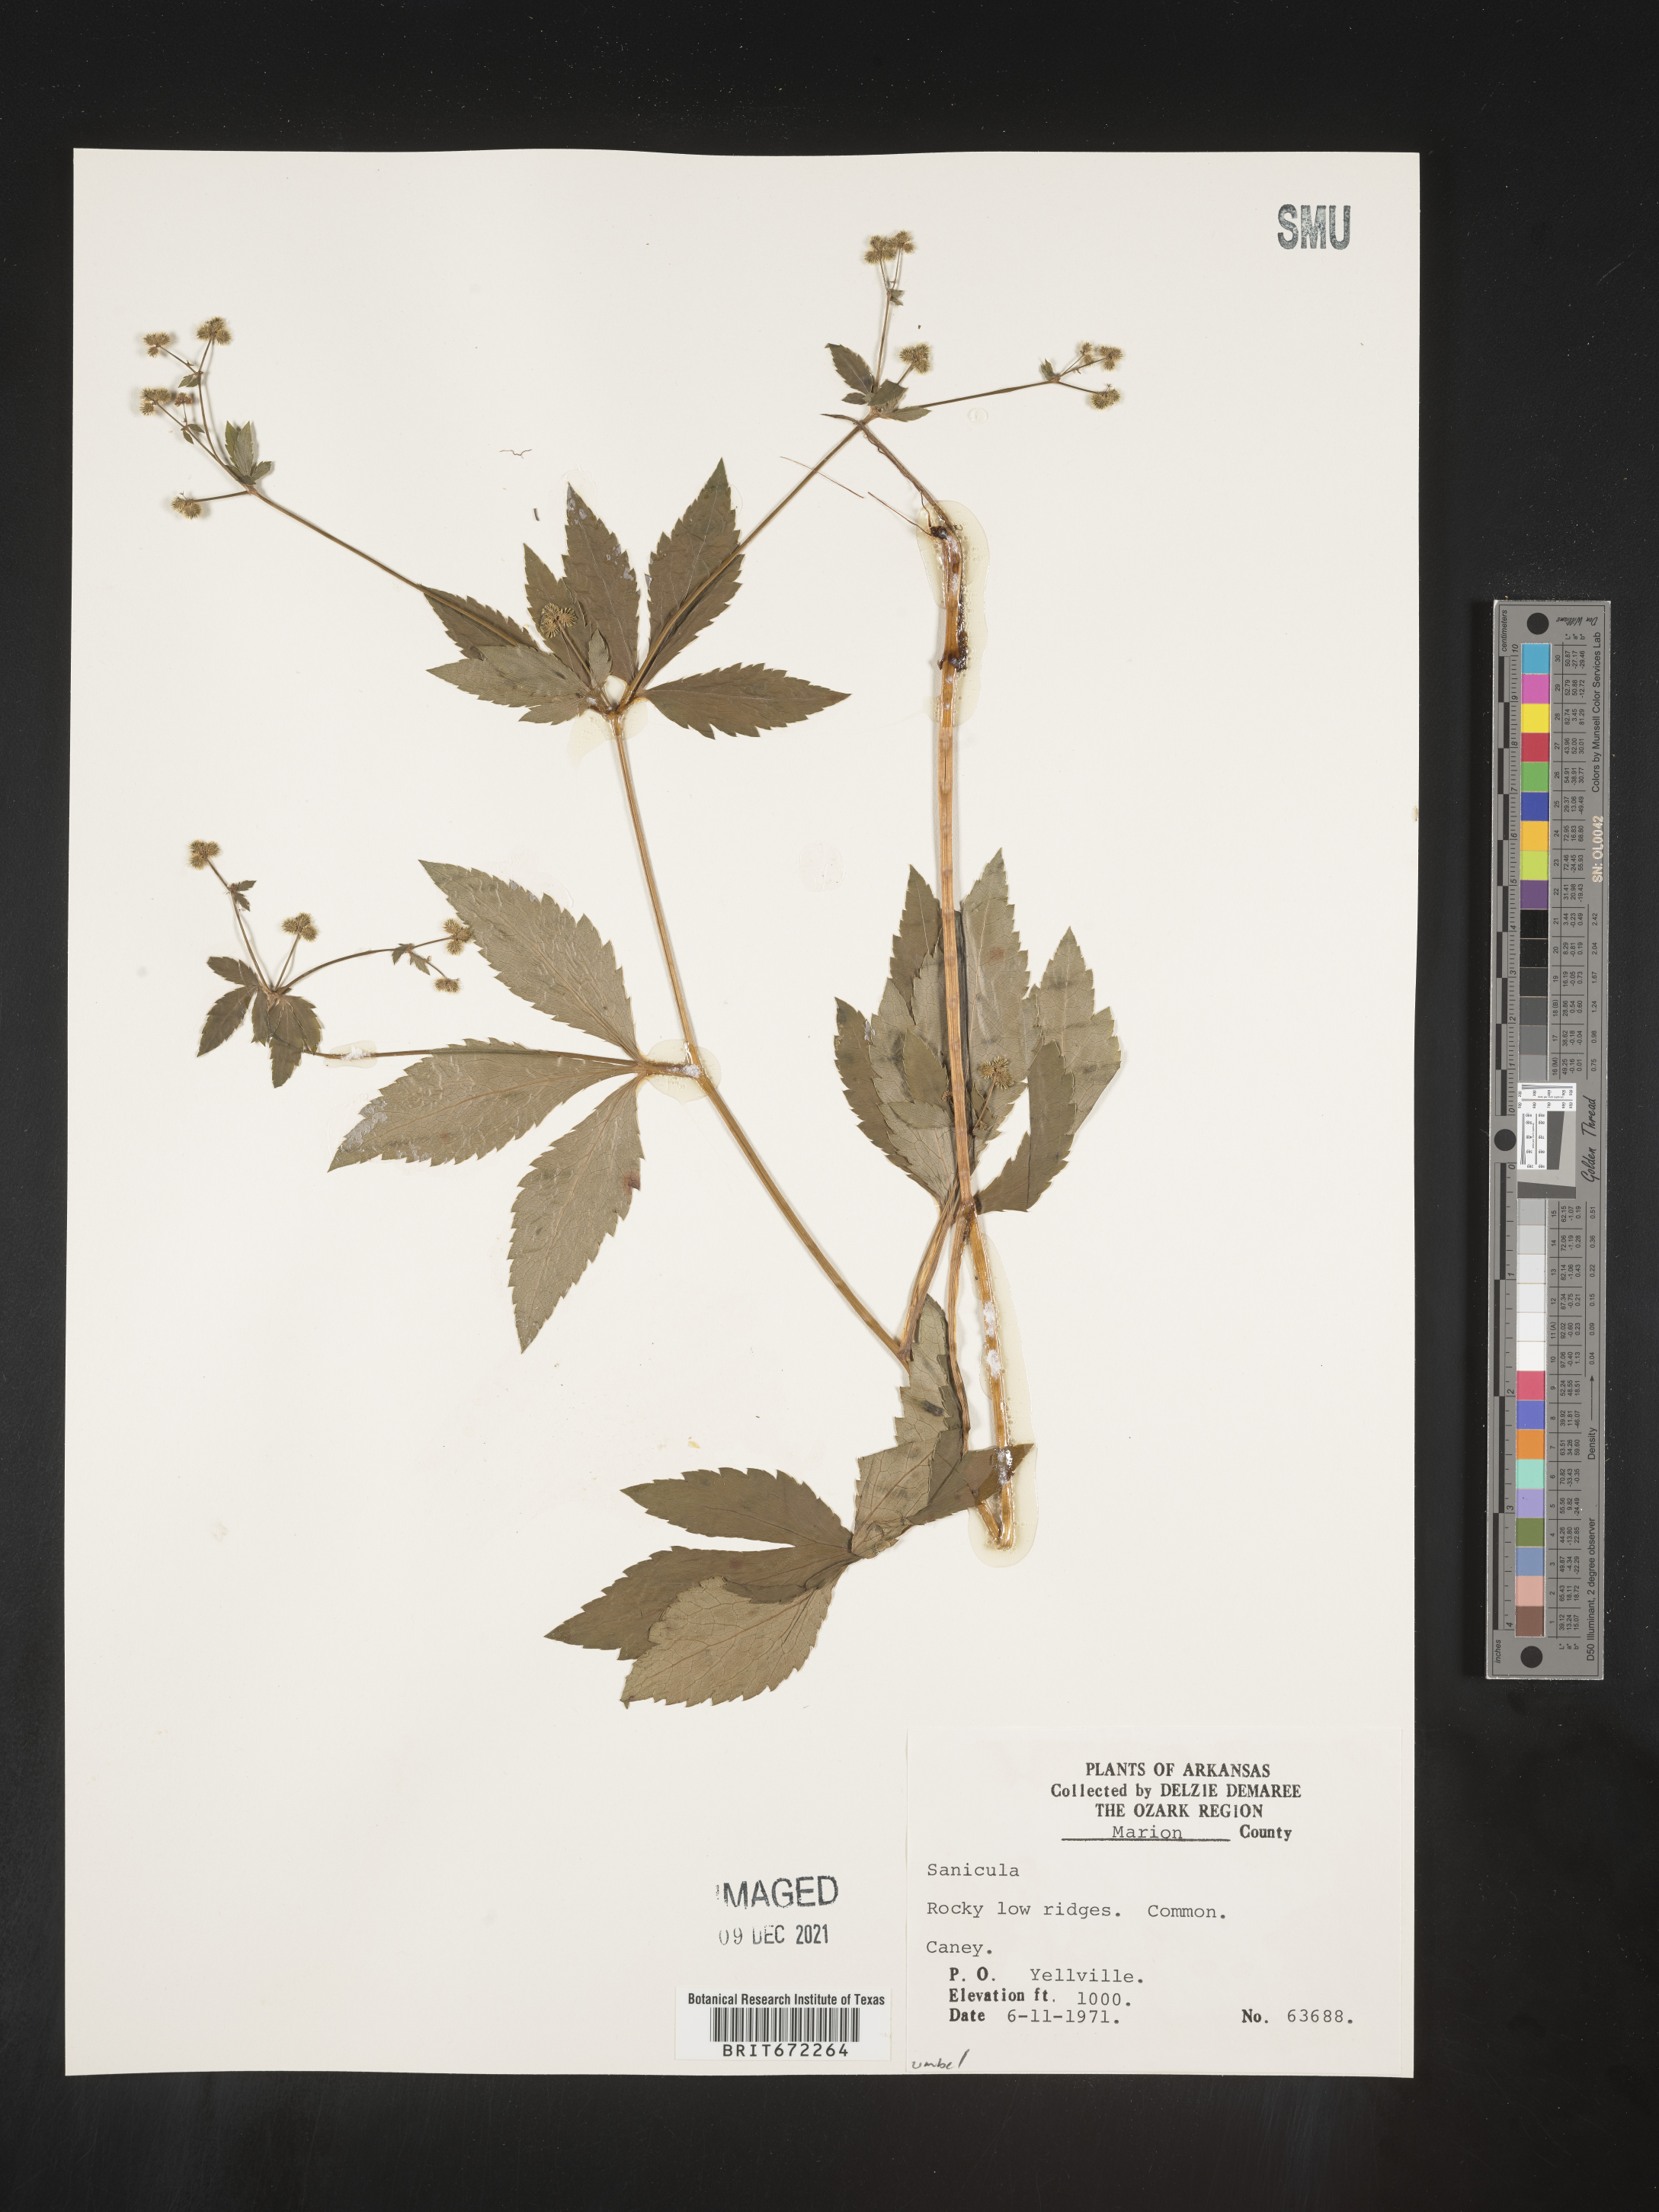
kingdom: Plantae
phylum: Tracheophyta
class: Magnoliopsida
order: Apiales
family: Apiaceae
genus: Sanicula
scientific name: Sanicula
